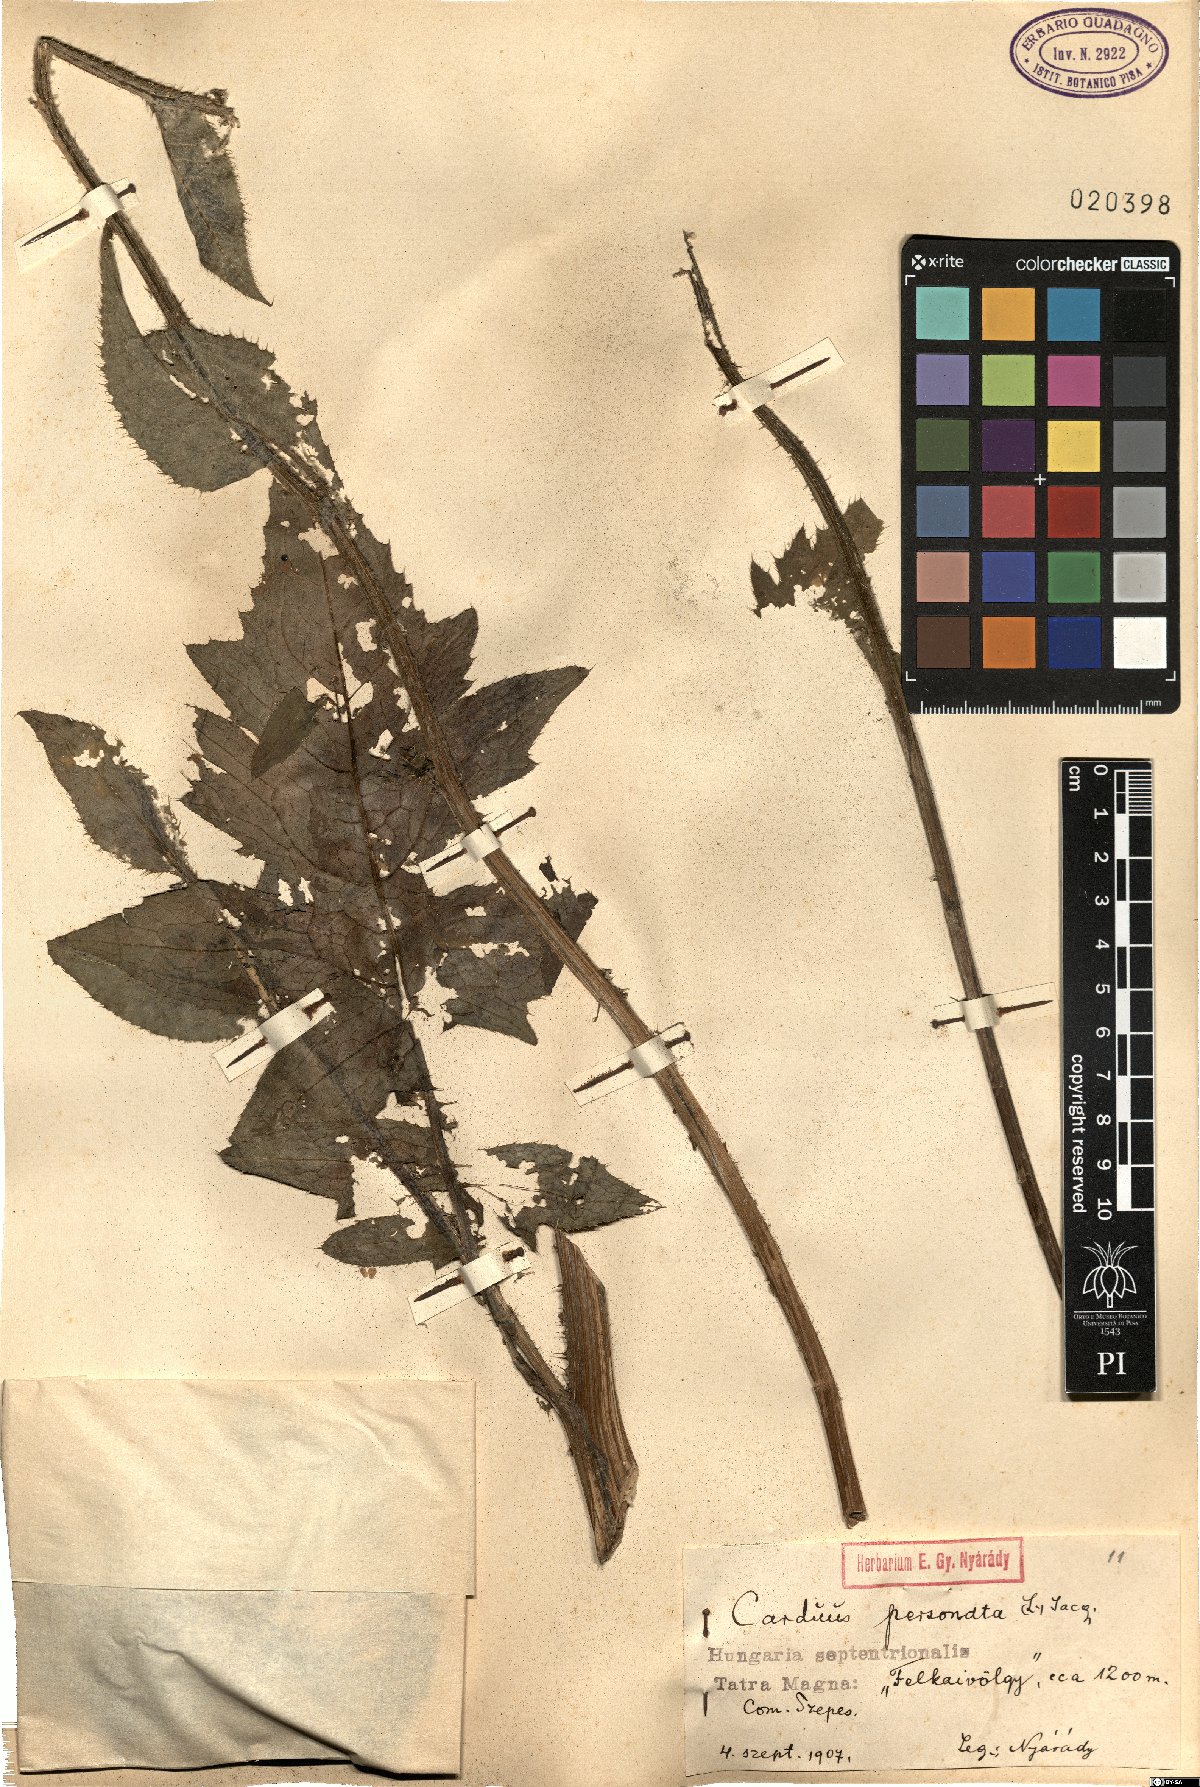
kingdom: Plantae
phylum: Tracheophyta
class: Magnoliopsida
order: Asterales
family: Asteraceae
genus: Carduus
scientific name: Carduus personata
